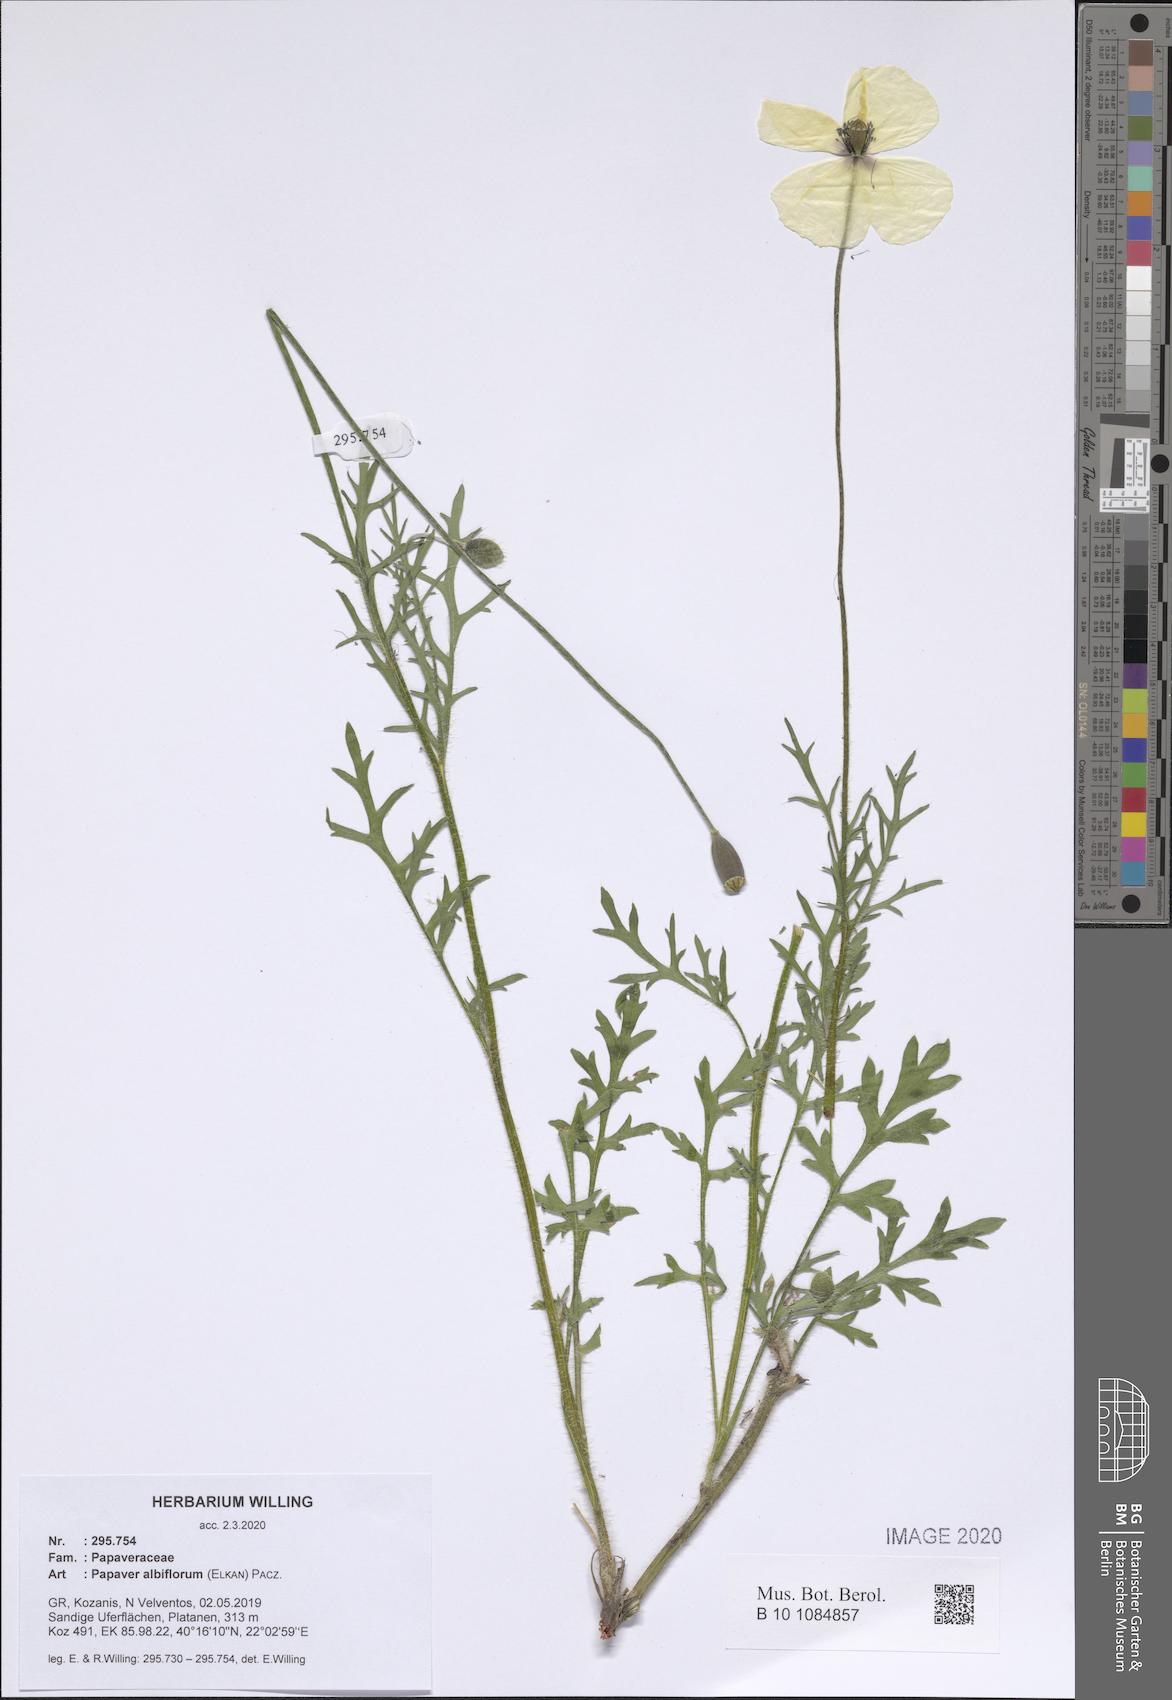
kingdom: Plantae
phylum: Tracheophyta
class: Magnoliopsida
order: Ranunculales
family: Papaveraceae
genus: Papaver
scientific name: Papaver albiflorum
